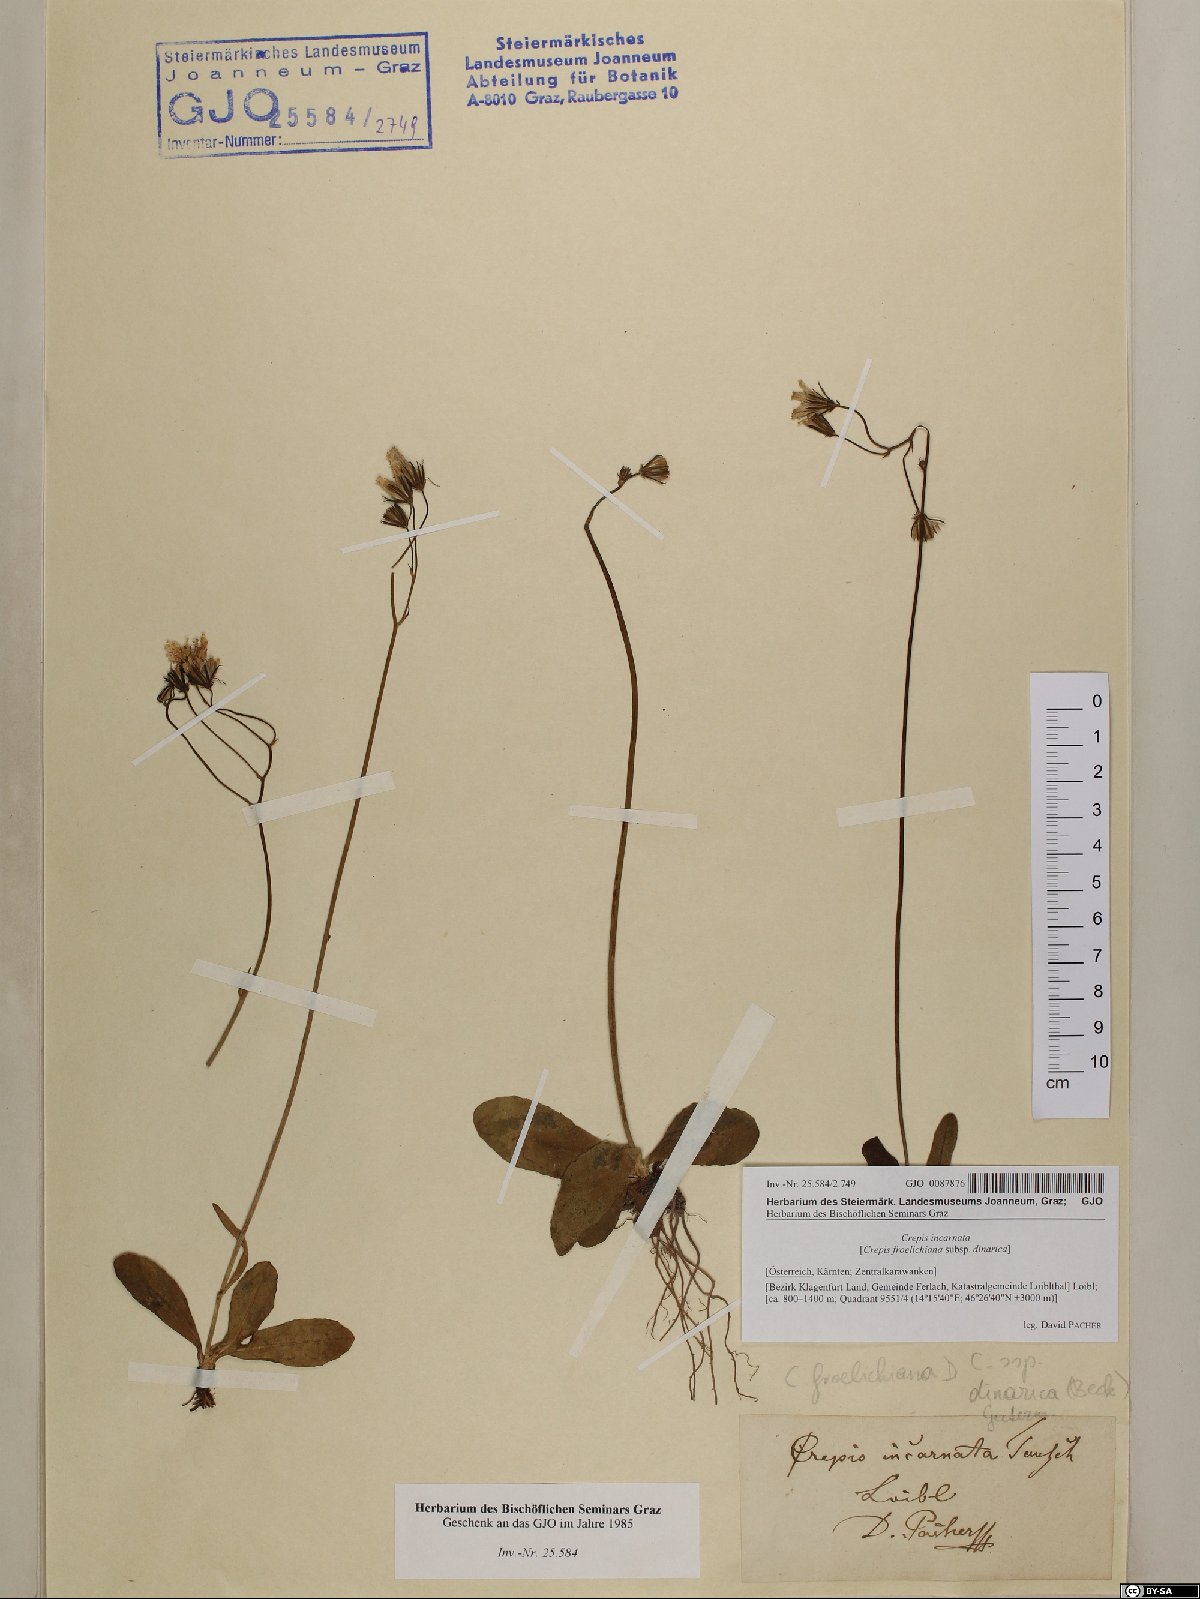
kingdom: Plantae
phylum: Tracheophyta
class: Magnoliopsida
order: Asterales
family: Asteraceae
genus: Crepis
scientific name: Crepis froelichiana
